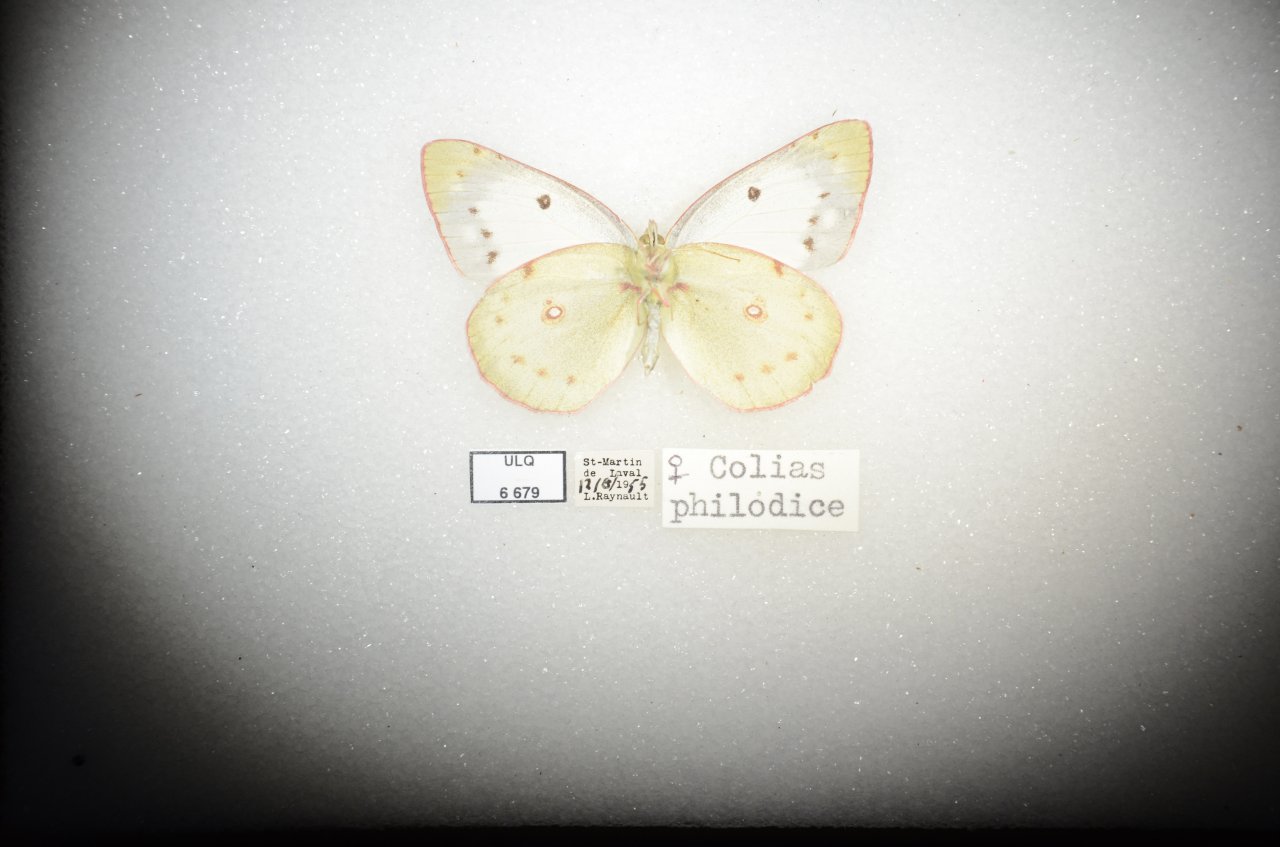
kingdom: Animalia
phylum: Arthropoda
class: Insecta
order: Lepidoptera
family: Pieridae
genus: Colias
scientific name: Colias philodice
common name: Clouded Sulphur
